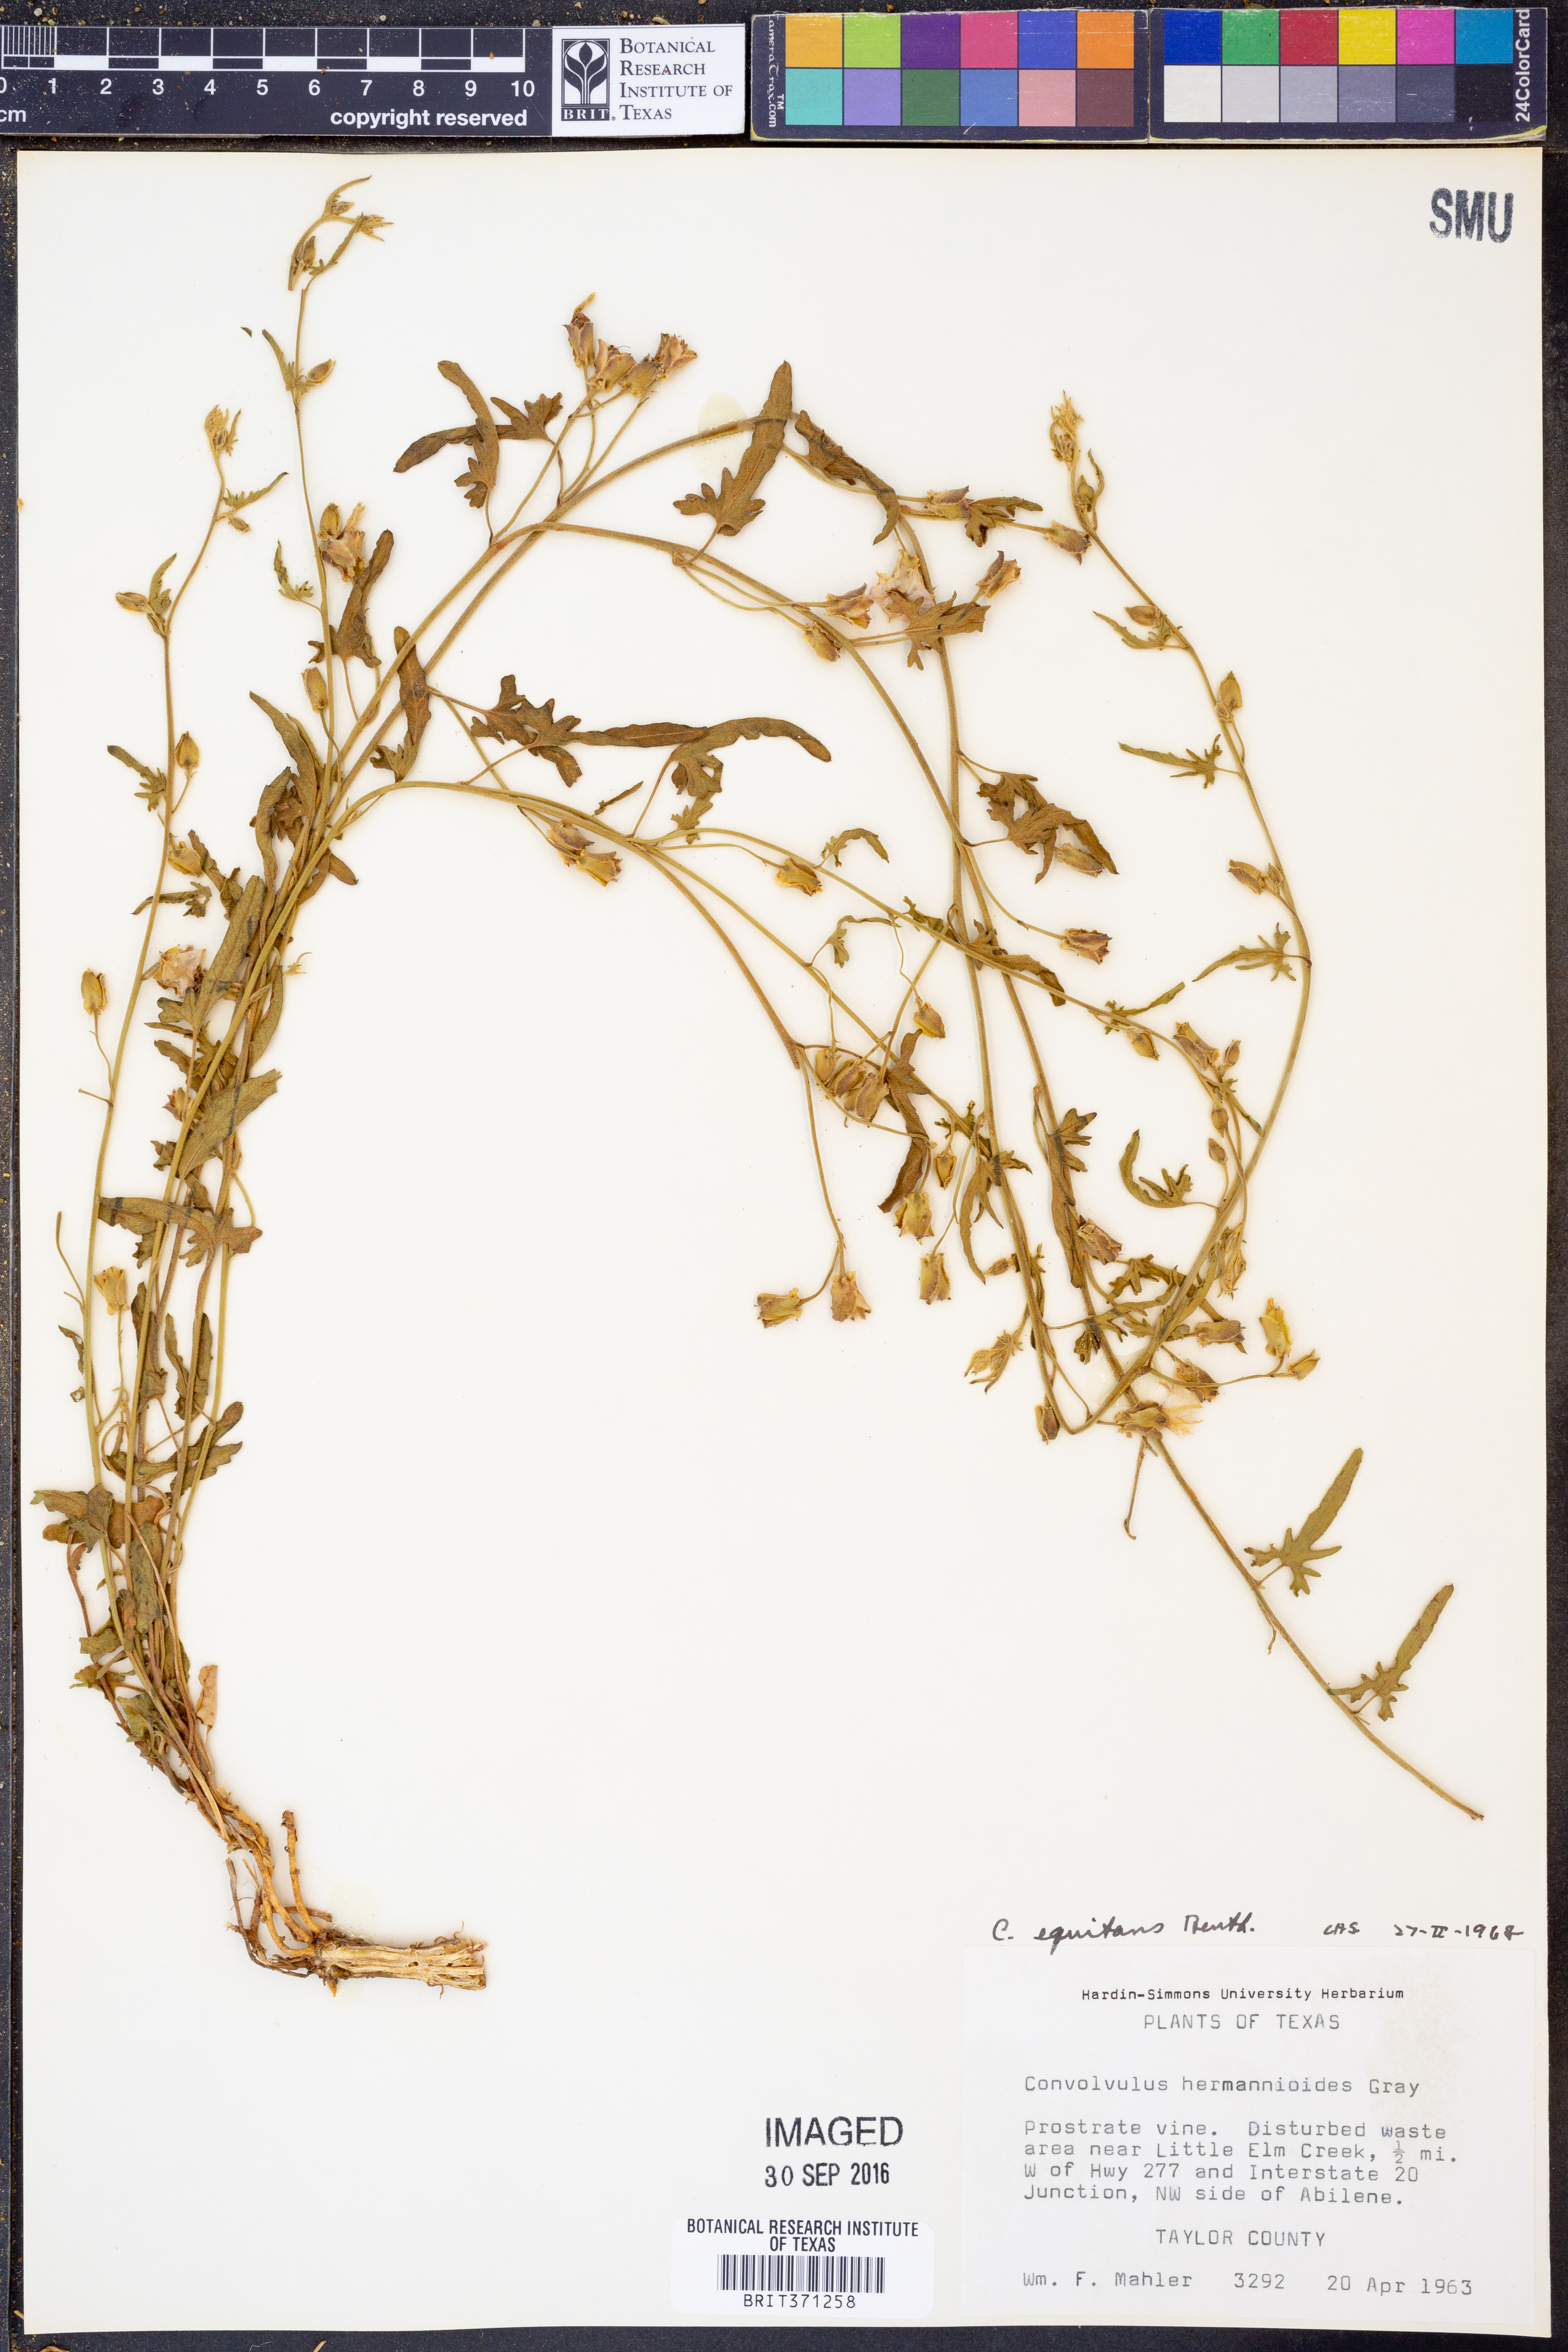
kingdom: Plantae
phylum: Tracheophyta
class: Magnoliopsida
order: Solanales
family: Convolvulaceae
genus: Convolvulus
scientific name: Convolvulus equitans
